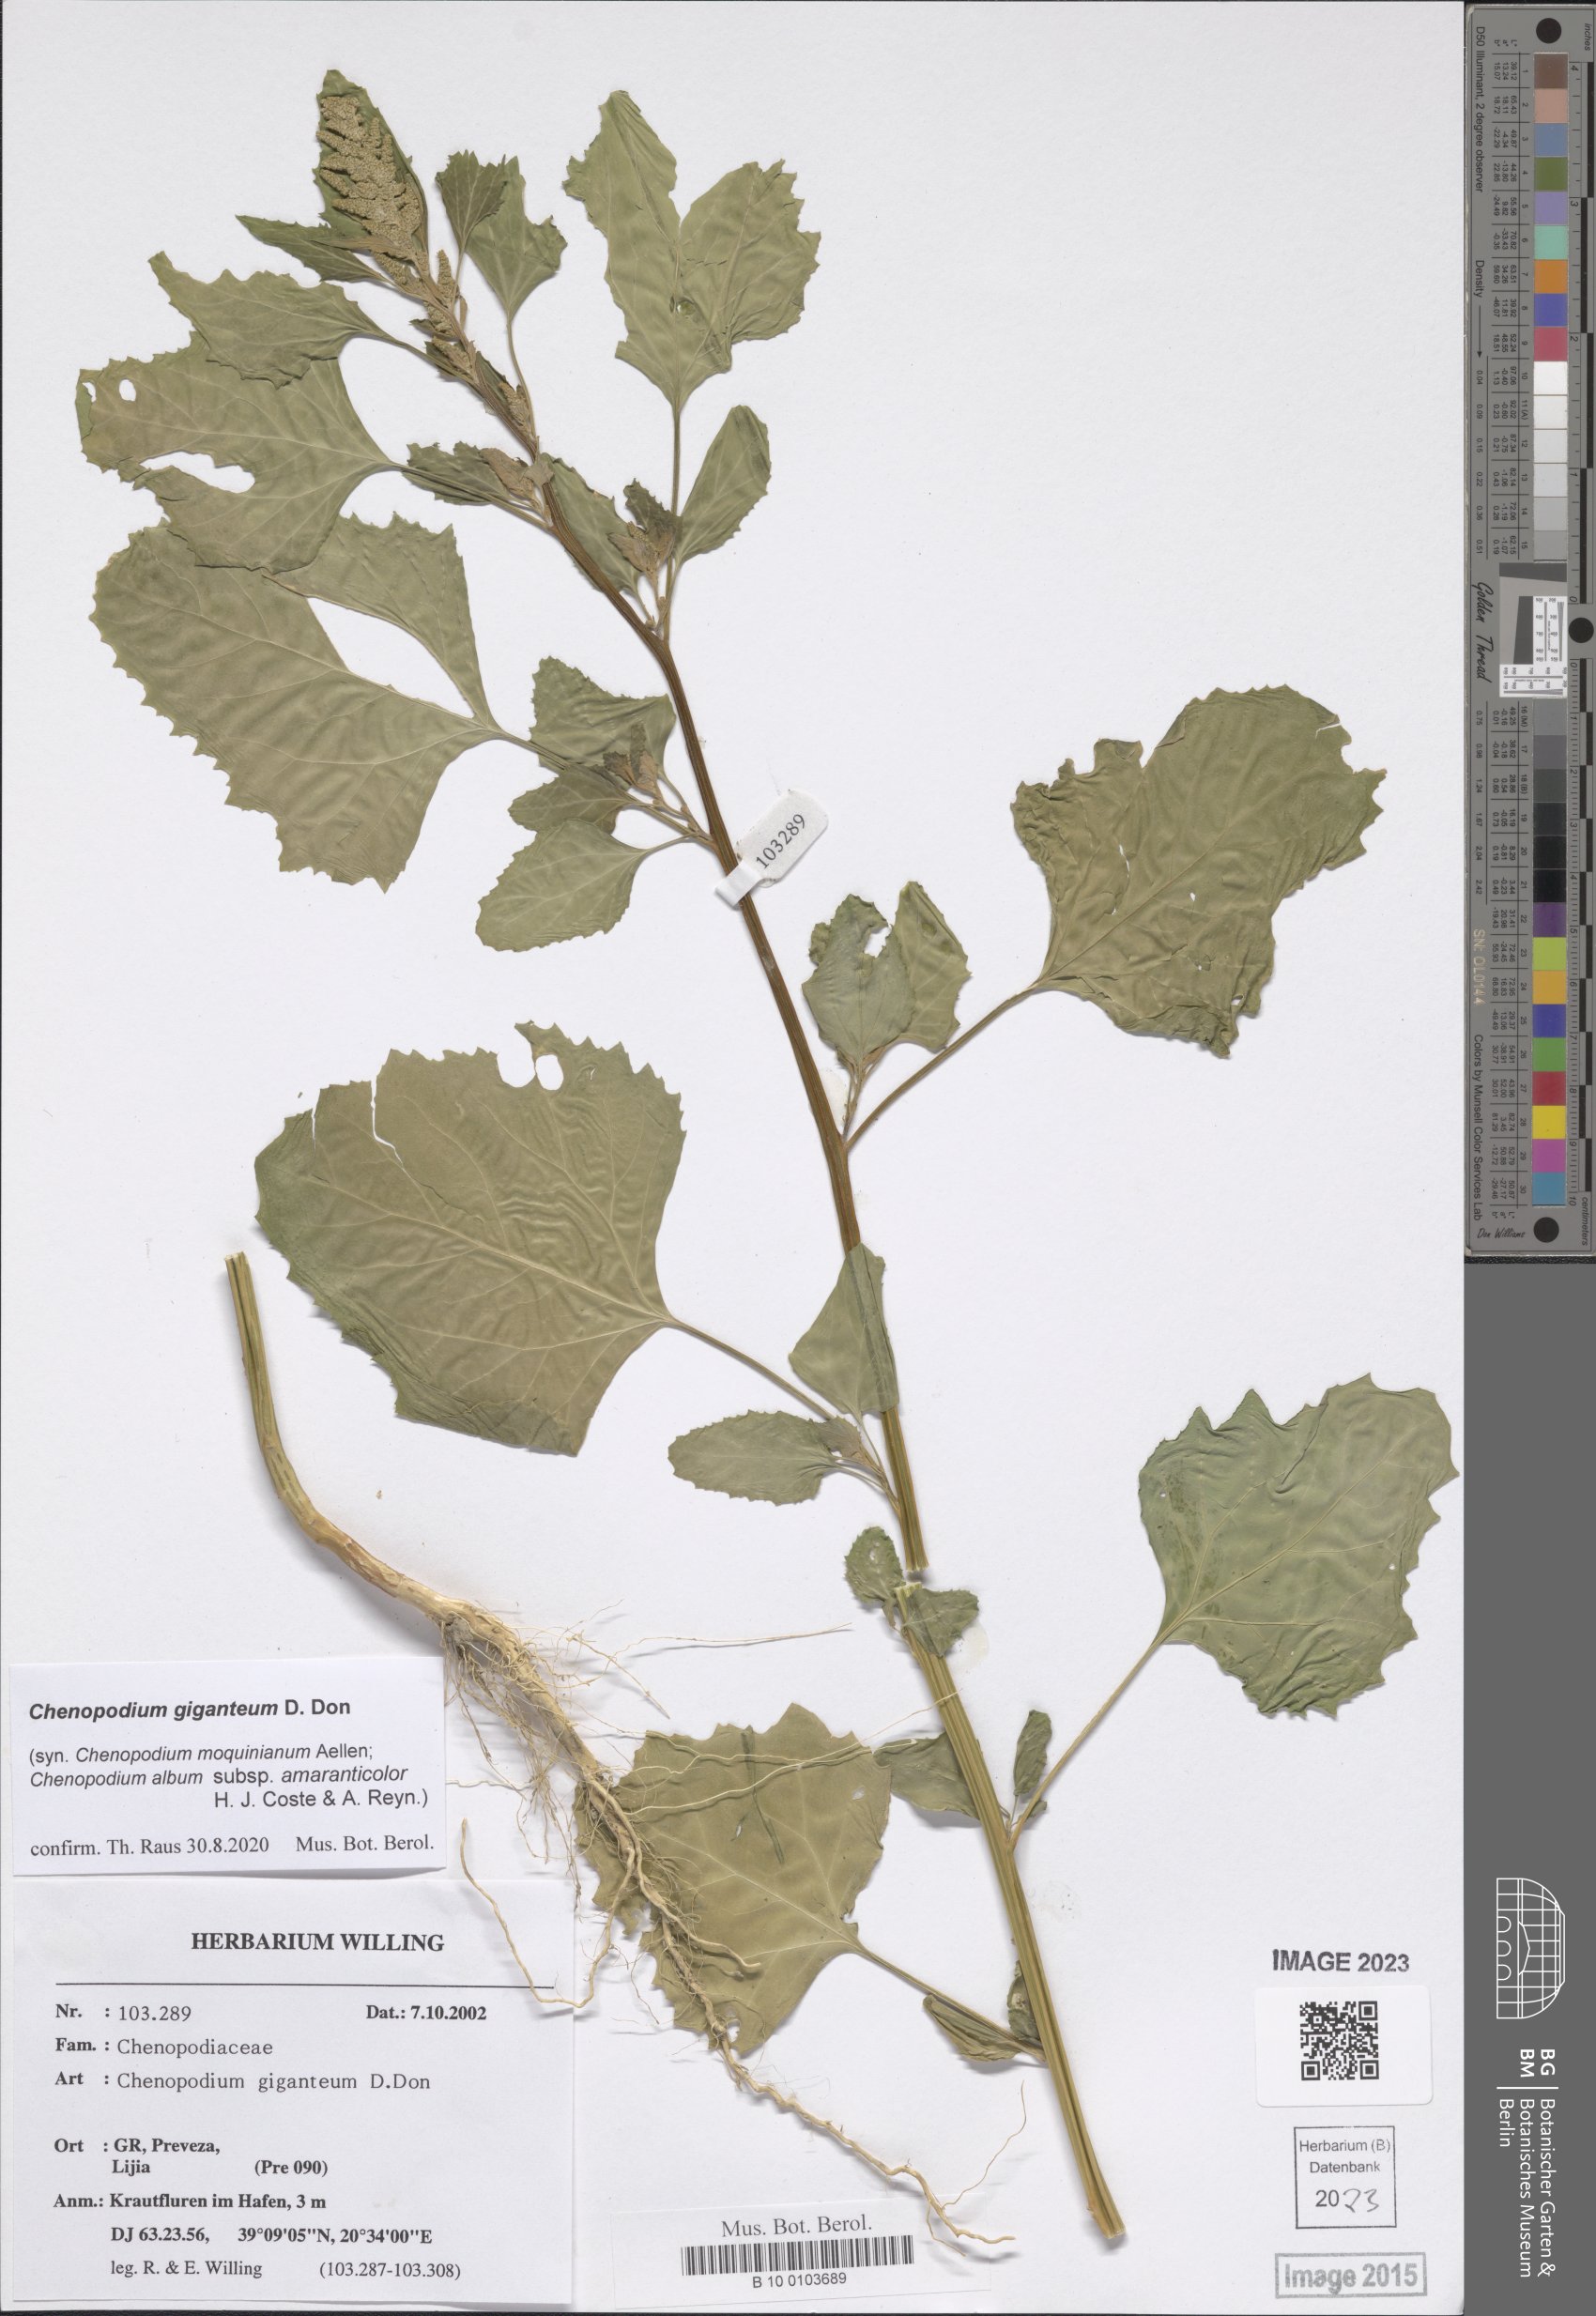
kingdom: Plantae
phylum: Tracheophyta
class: Magnoliopsida
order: Caryophyllales
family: Amaranthaceae
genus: Chenopodium
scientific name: Chenopodium giganteum
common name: Magentaspreen
